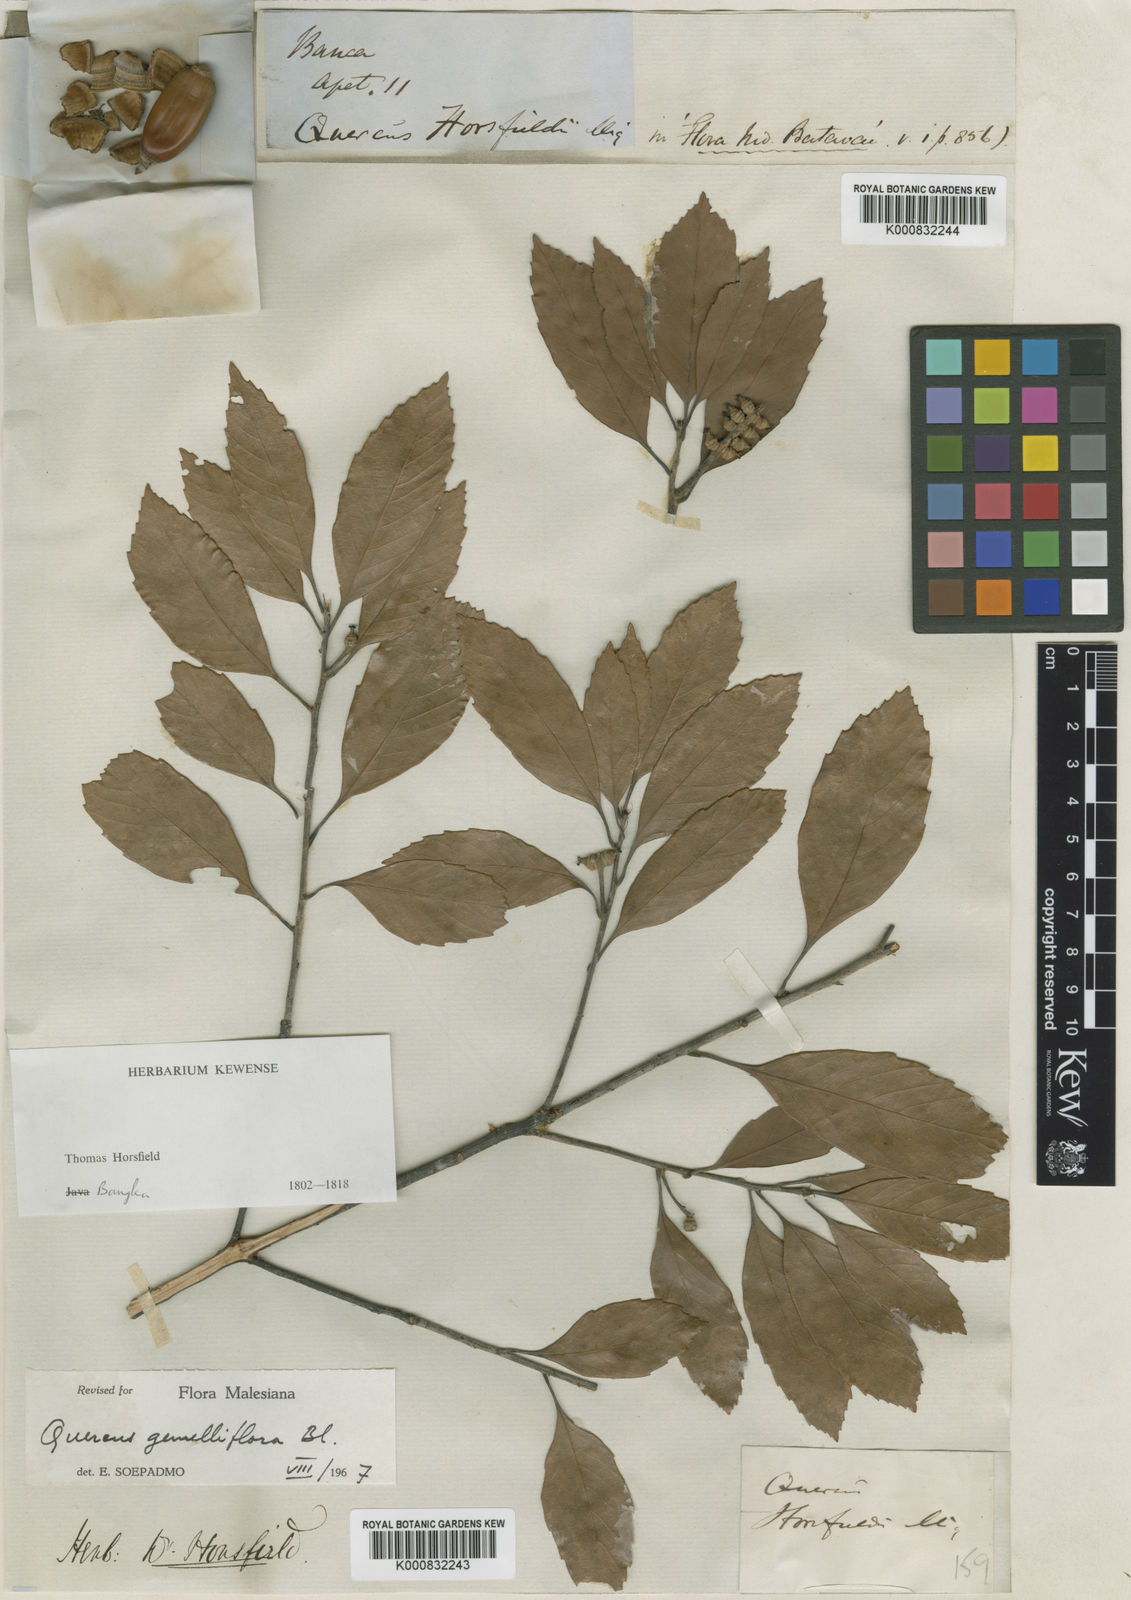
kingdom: Plantae
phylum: Tracheophyta
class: Magnoliopsida
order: Fagales
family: Fagaceae
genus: Quercus
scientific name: Quercus gemelliflora
